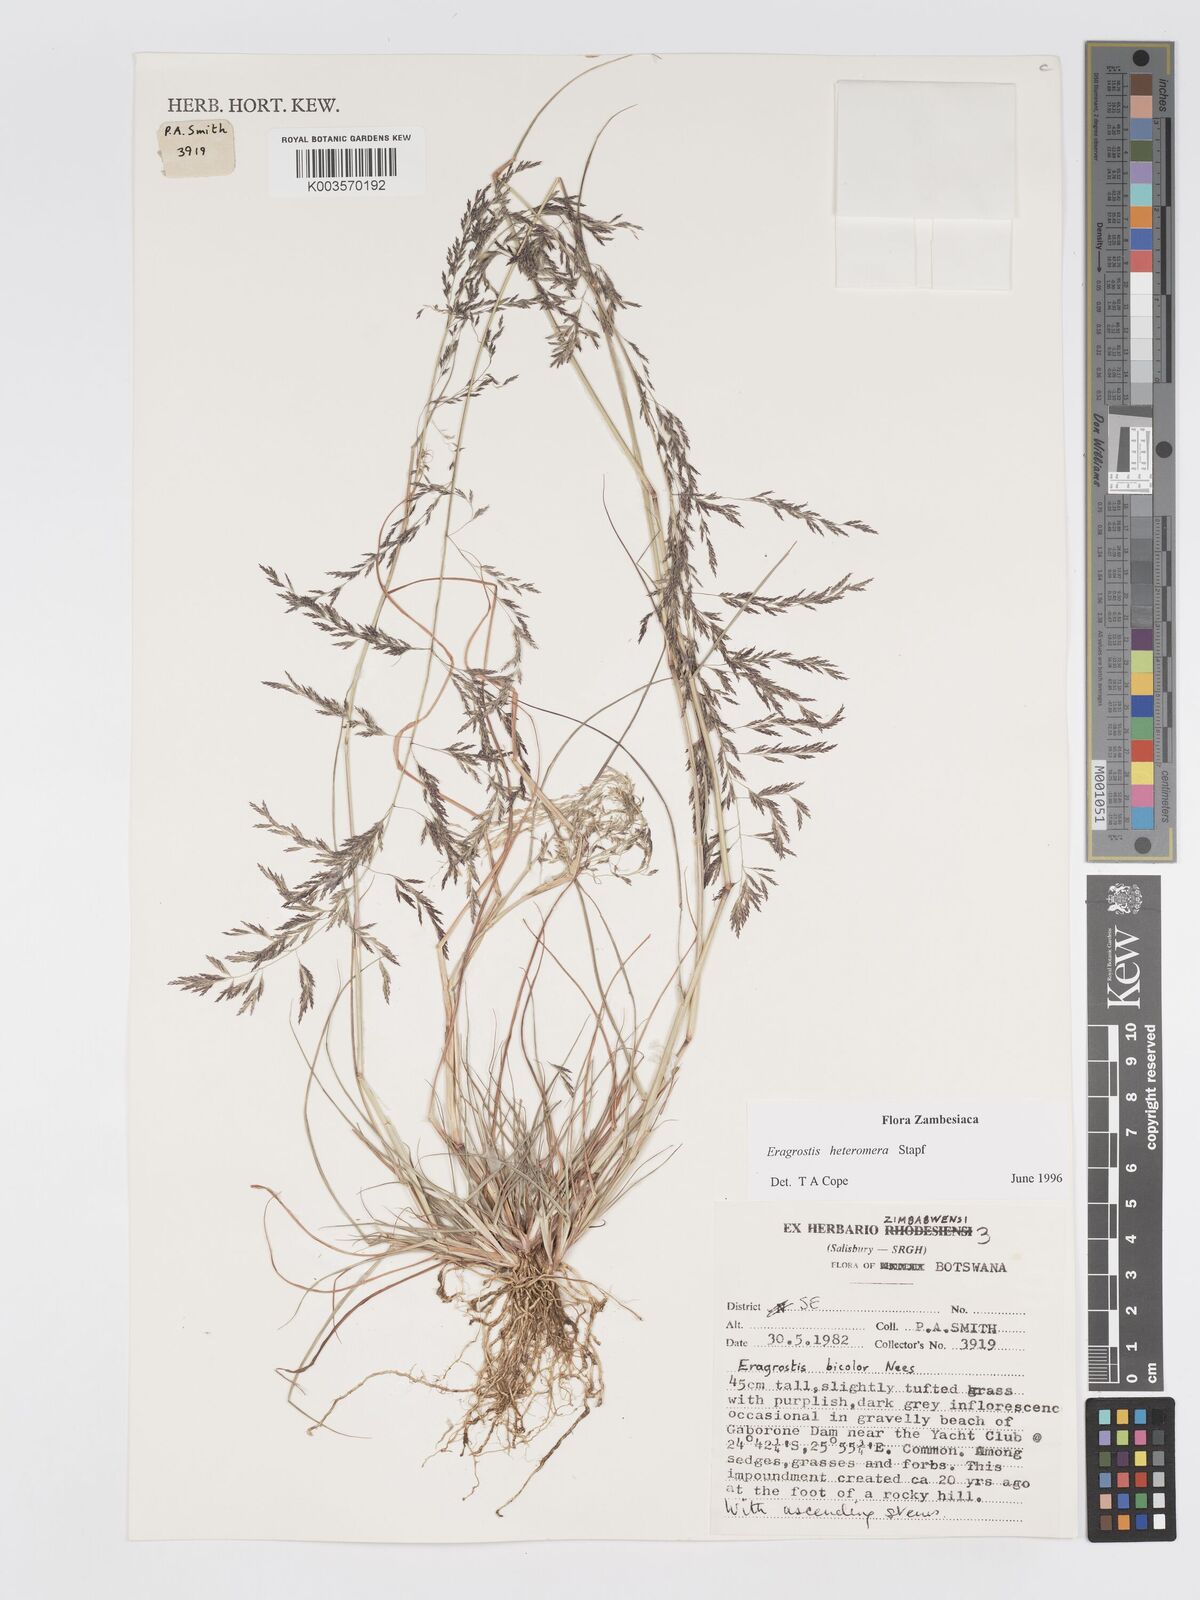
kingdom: Plantae
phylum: Tracheophyta
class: Liliopsida
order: Poales
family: Poaceae
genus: Eragrostis
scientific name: Eragrostis heteromera
